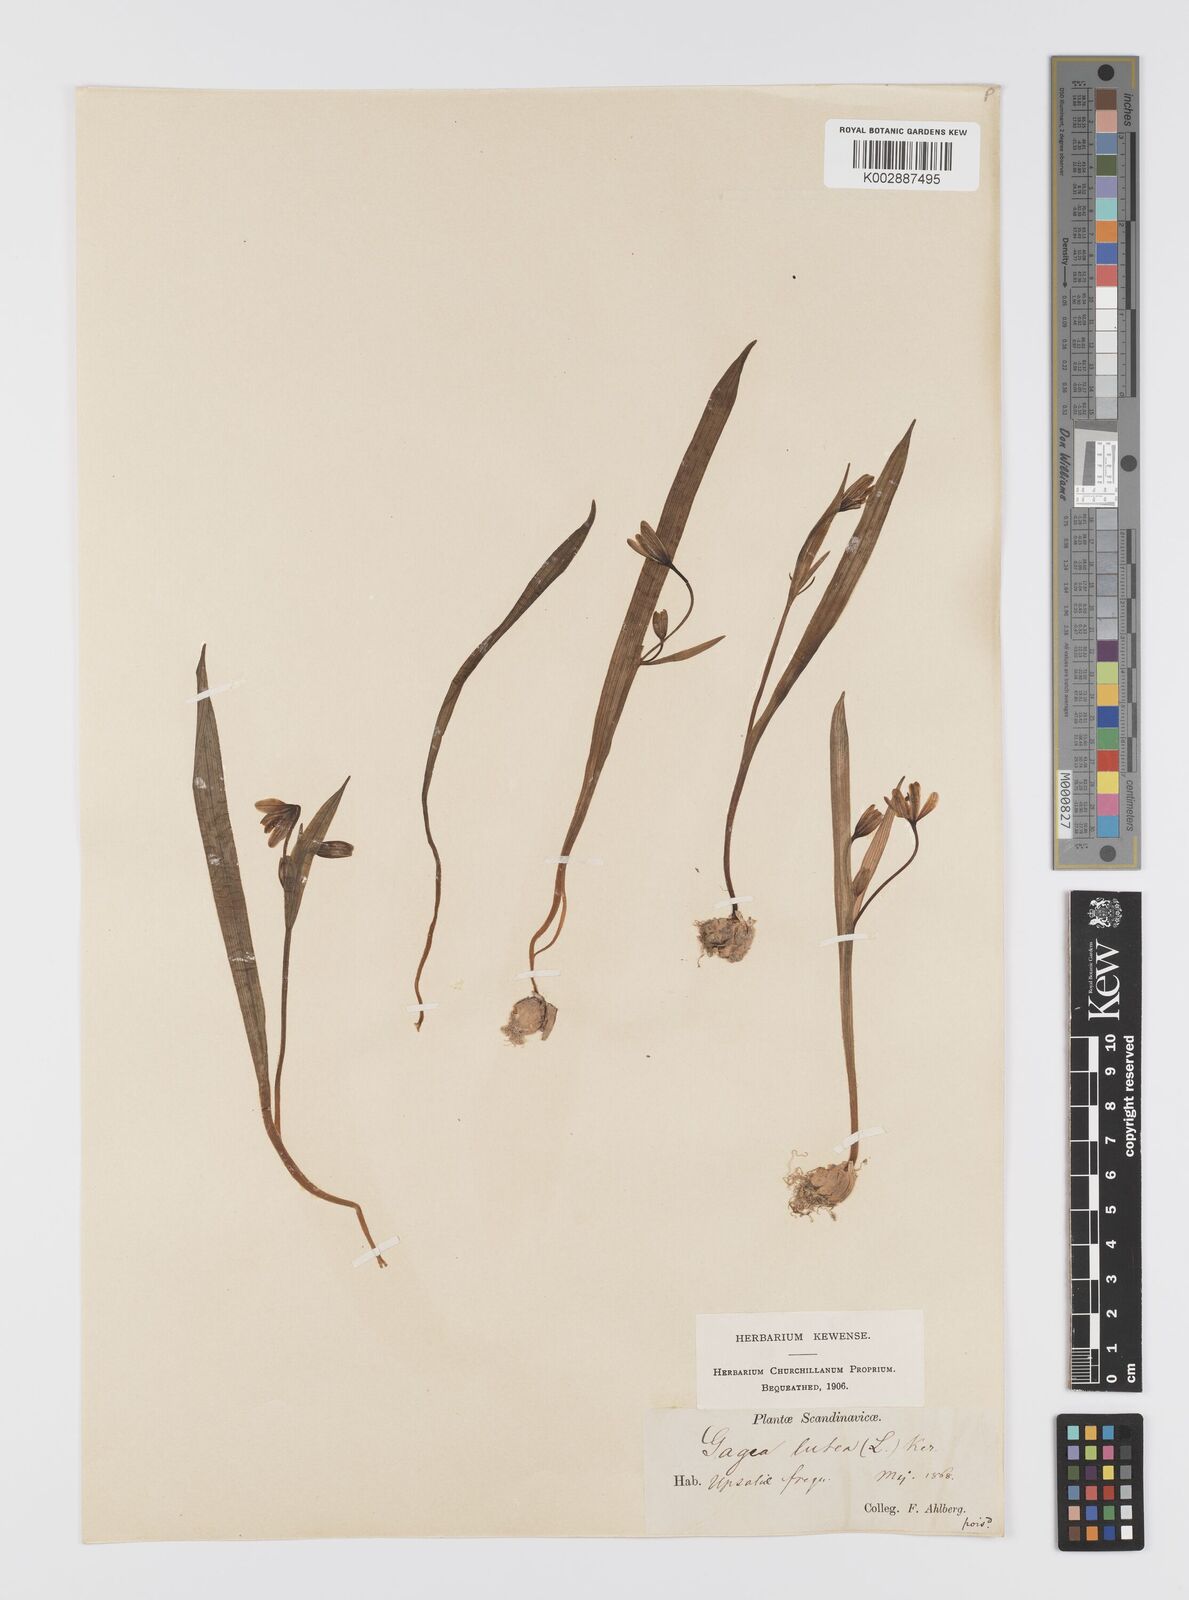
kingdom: Plantae
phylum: Tracheophyta
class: Liliopsida
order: Liliales
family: Liliaceae
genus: Gagea
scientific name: Gagea lutea
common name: Yellow star-of-bethlehem
